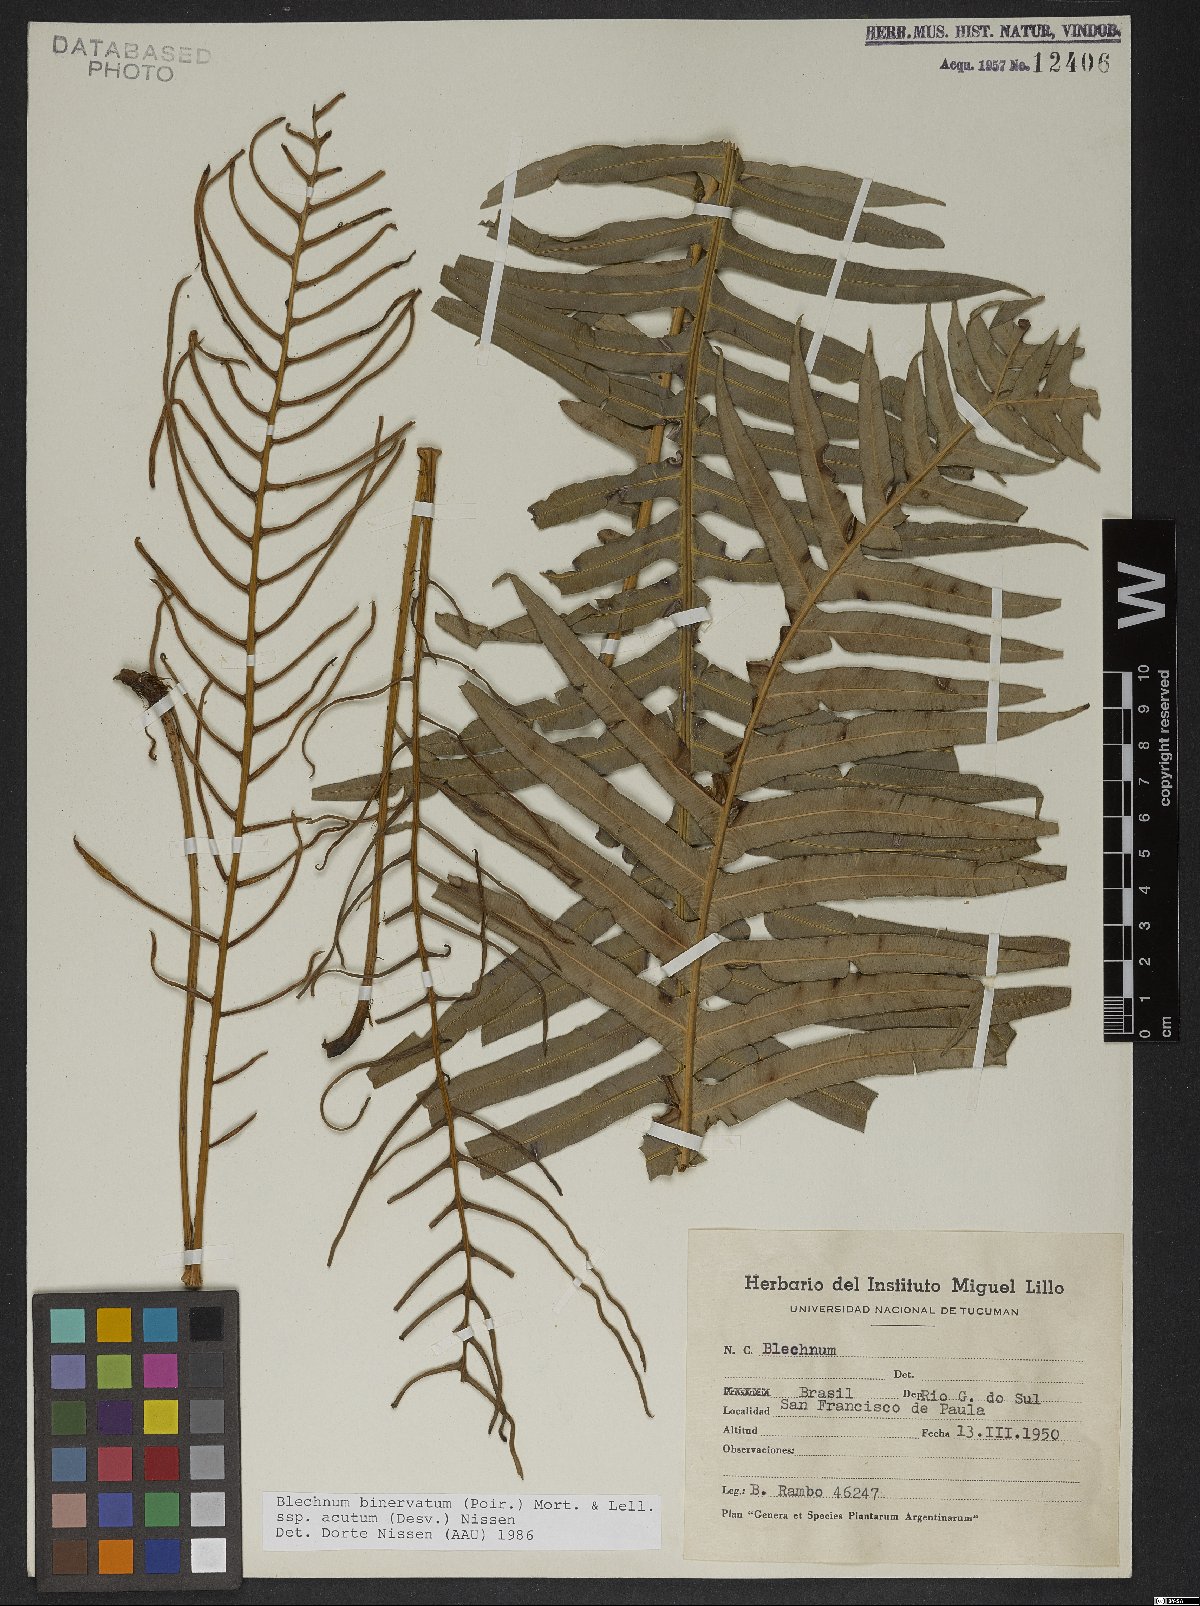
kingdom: Plantae
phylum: Tracheophyta
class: Polypodiopsida
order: Polypodiales
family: Blechnaceae
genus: Lomaridium
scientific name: Lomaridium binervatum
